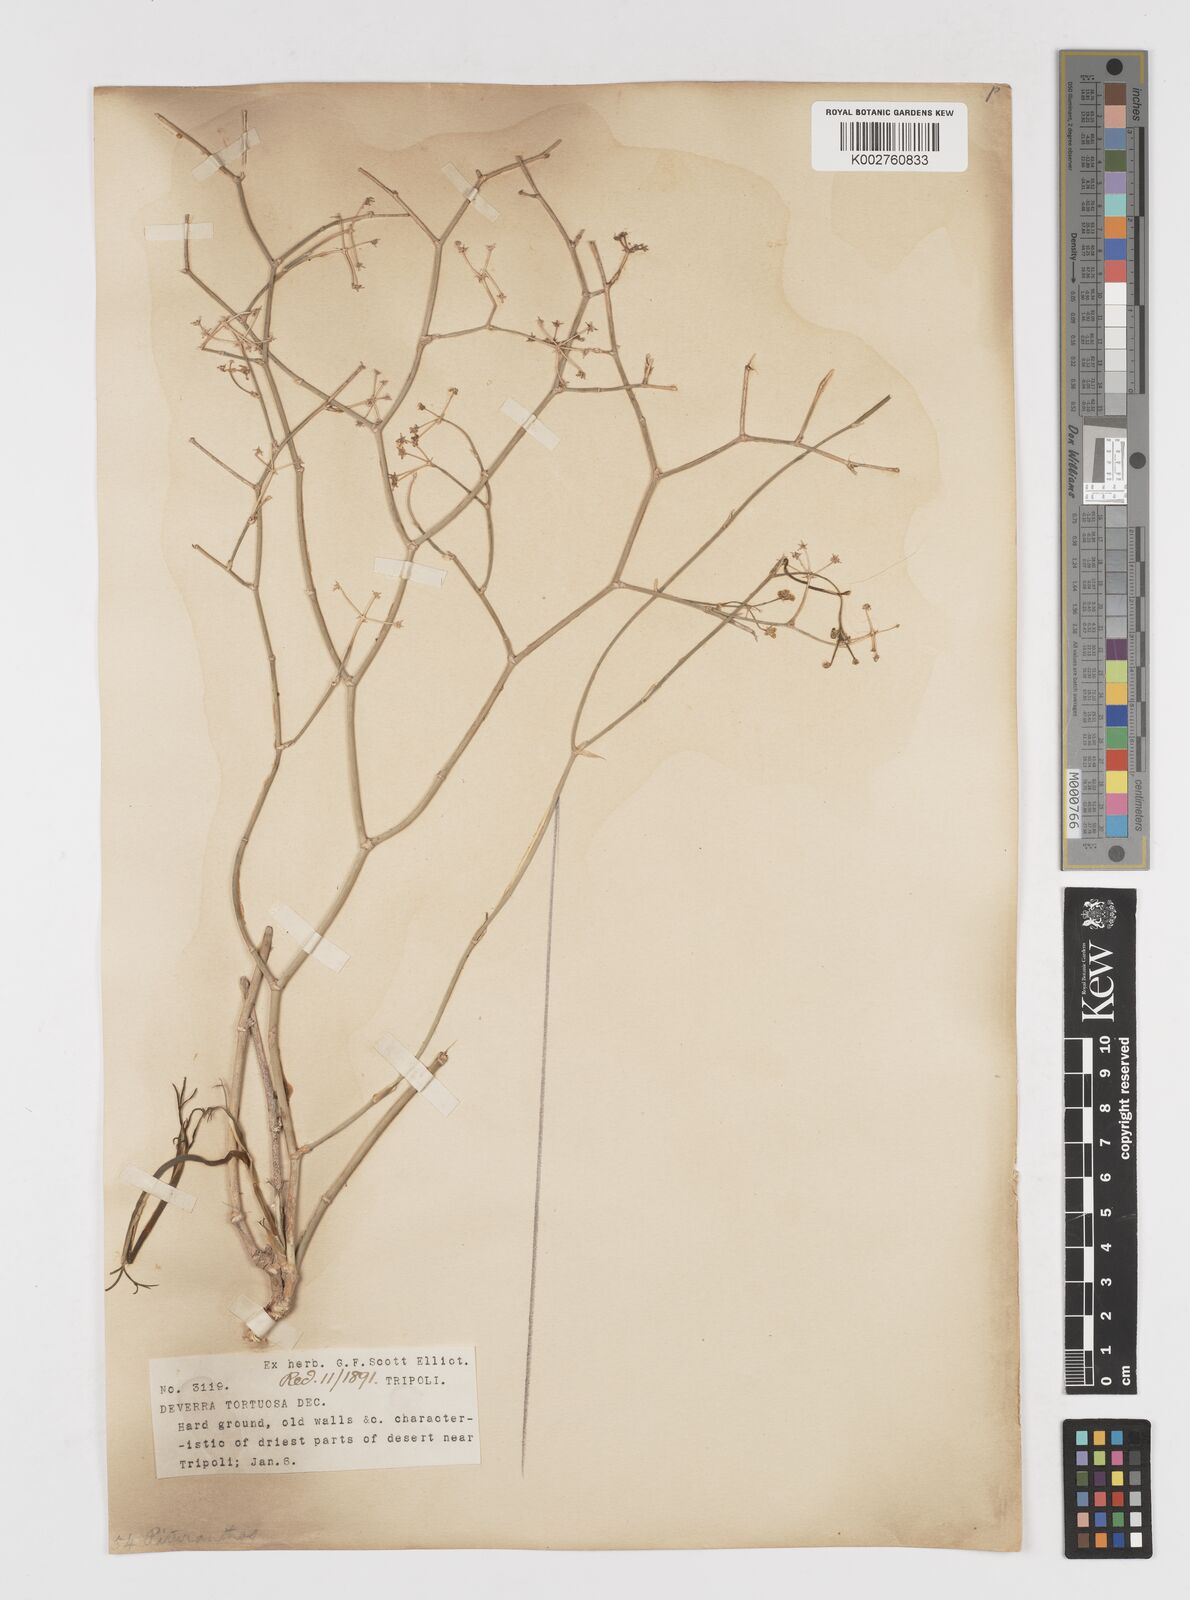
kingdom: Plantae
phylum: Tracheophyta
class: Magnoliopsida
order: Apiales
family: Apiaceae
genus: Deverra
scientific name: Deverra
